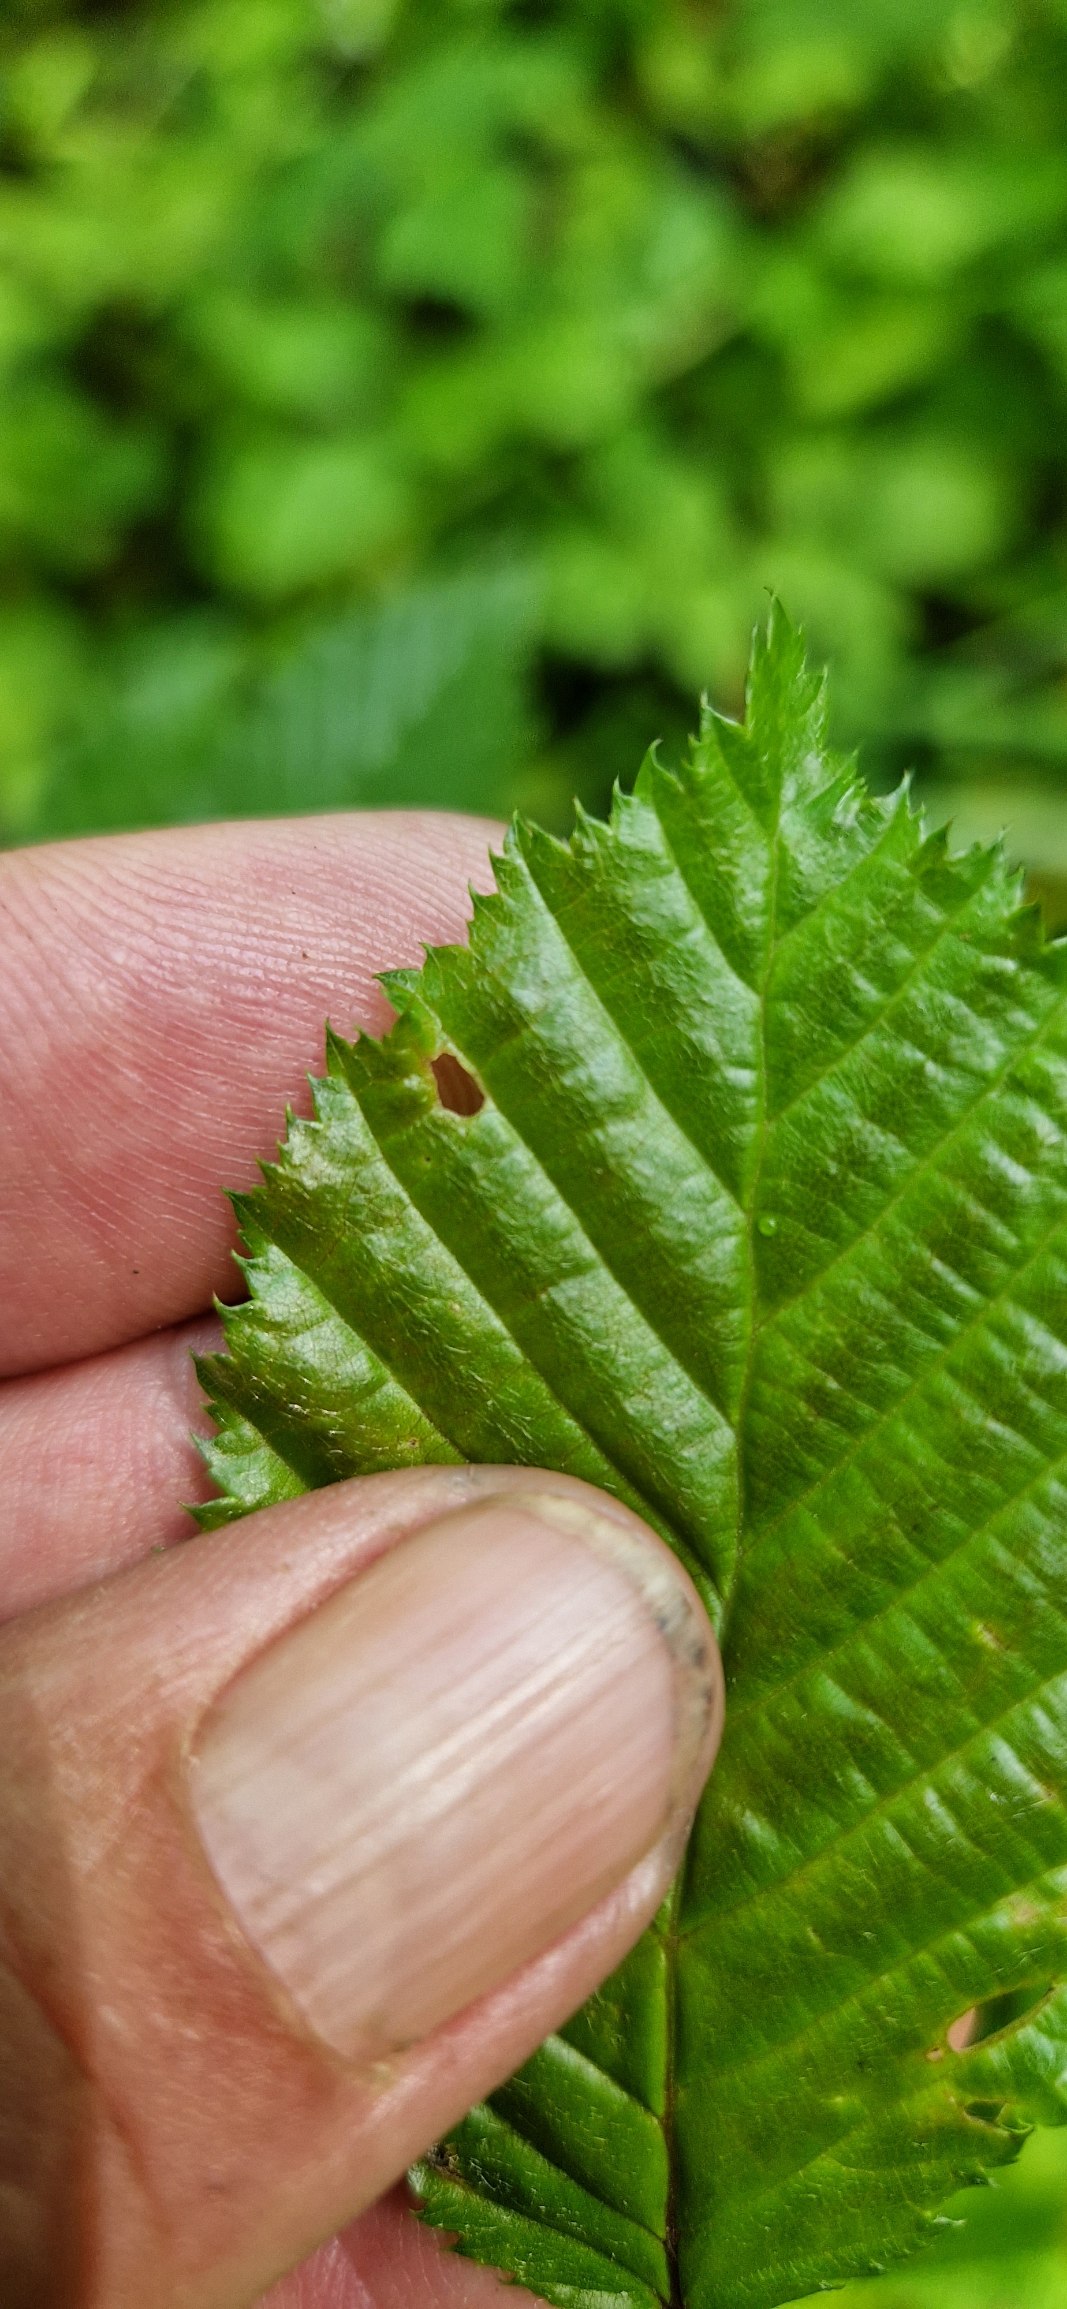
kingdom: Plantae
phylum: Tracheophyta
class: Magnoliopsida
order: Fagales
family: Betulaceae
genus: Carpinus
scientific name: Carpinus betulus
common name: Avnbøg
